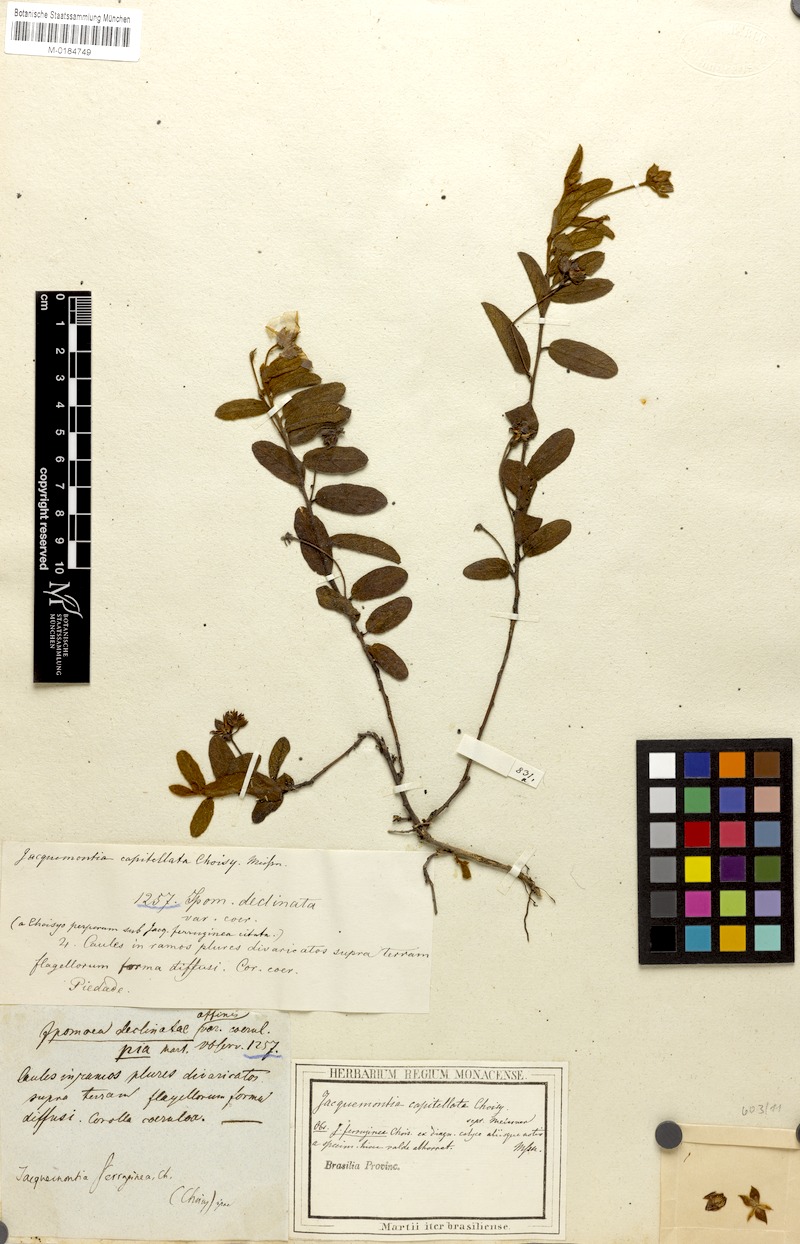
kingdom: Plantae
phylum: Tracheophyta
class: Magnoliopsida
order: Solanales
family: Convolvulaceae
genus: Jacquemontia
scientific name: Jacquemontia prostrata
